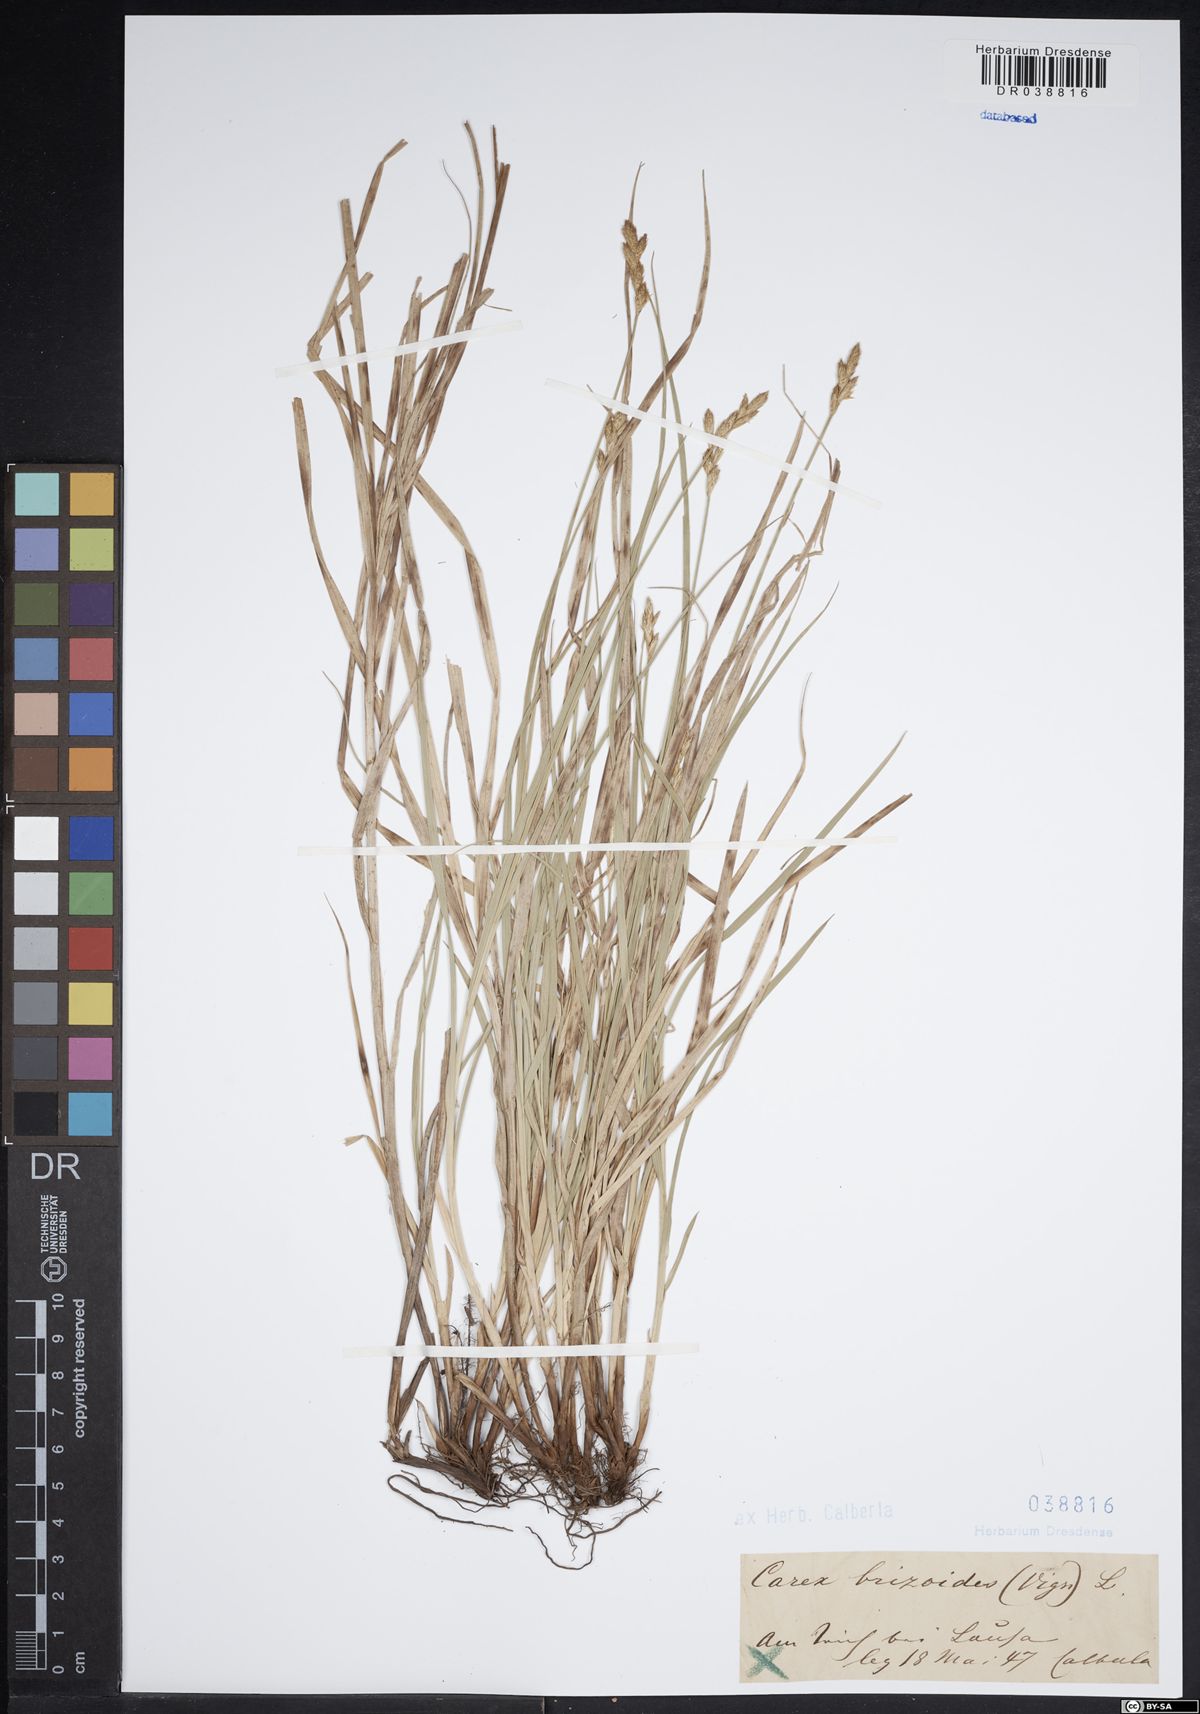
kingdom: Plantae
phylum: Tracheophyta
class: Liliopsida
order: Poales
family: Cyperaceae
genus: Carex
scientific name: Carex brizoides
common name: Quaking-grass sedge
